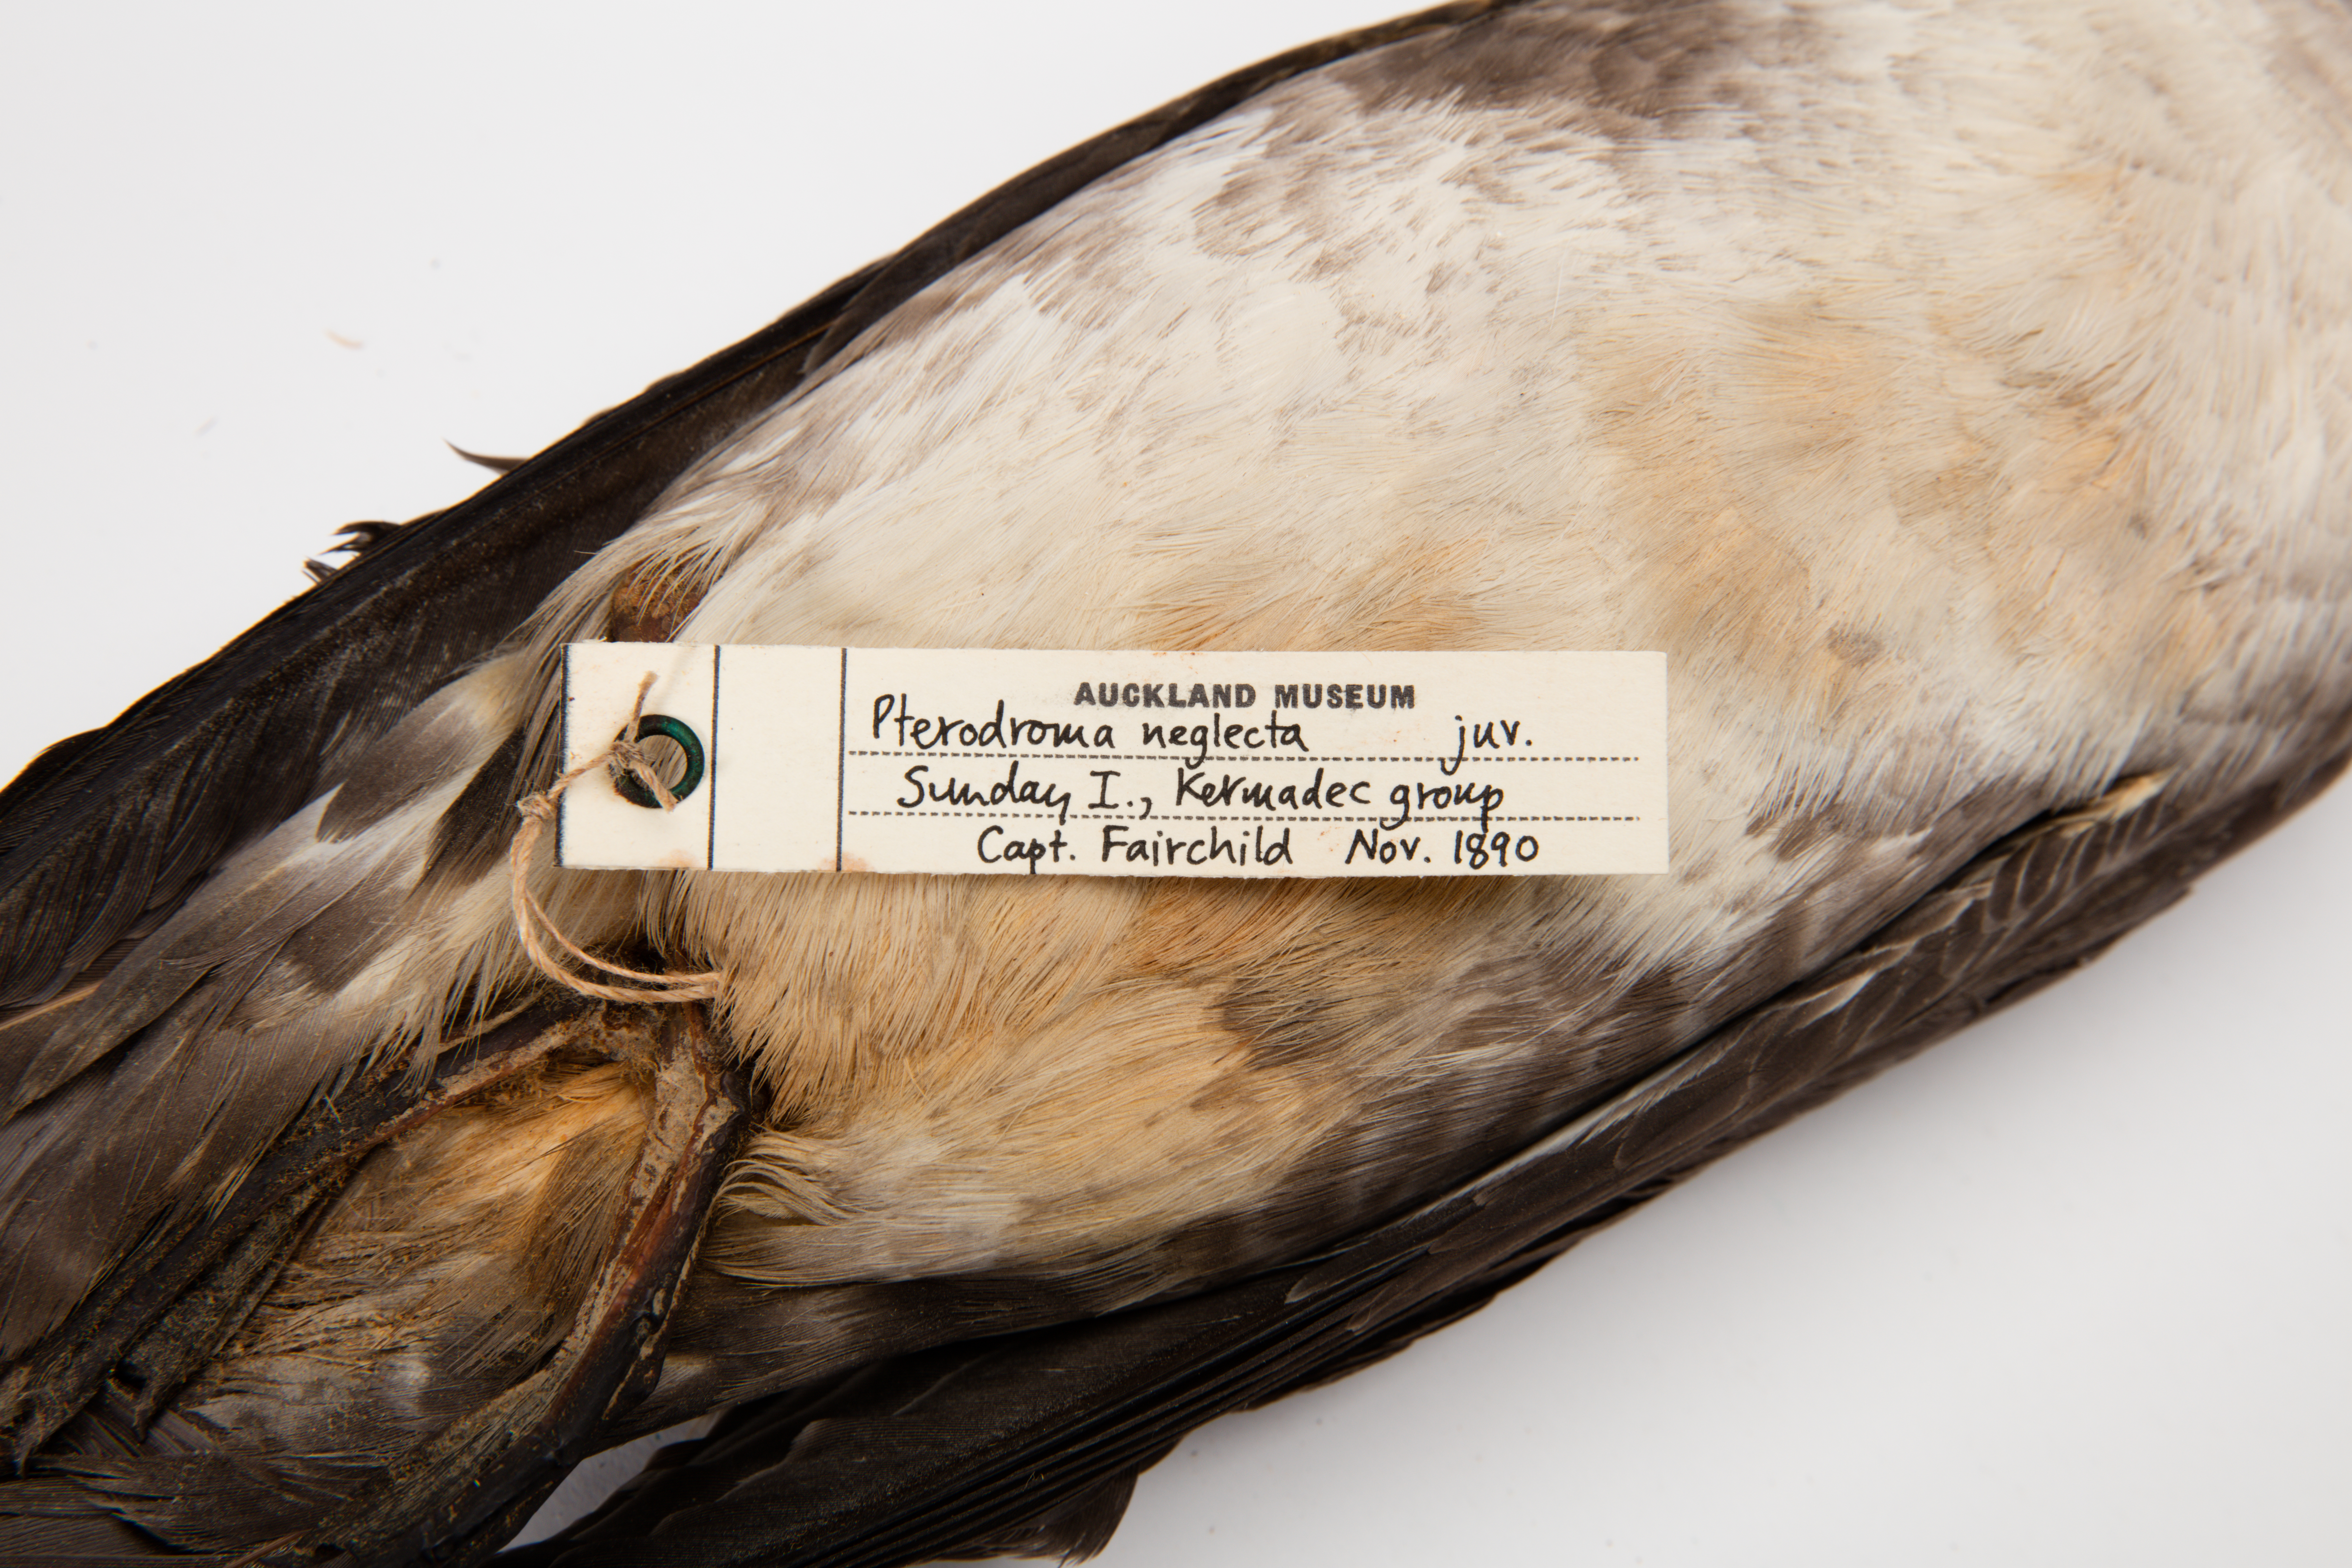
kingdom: Animalia
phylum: Chordata
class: Aves
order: Procellariiformes
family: Procellariidae
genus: Pterodroma
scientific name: Pterodroma neglecta
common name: Kermadec petrel
